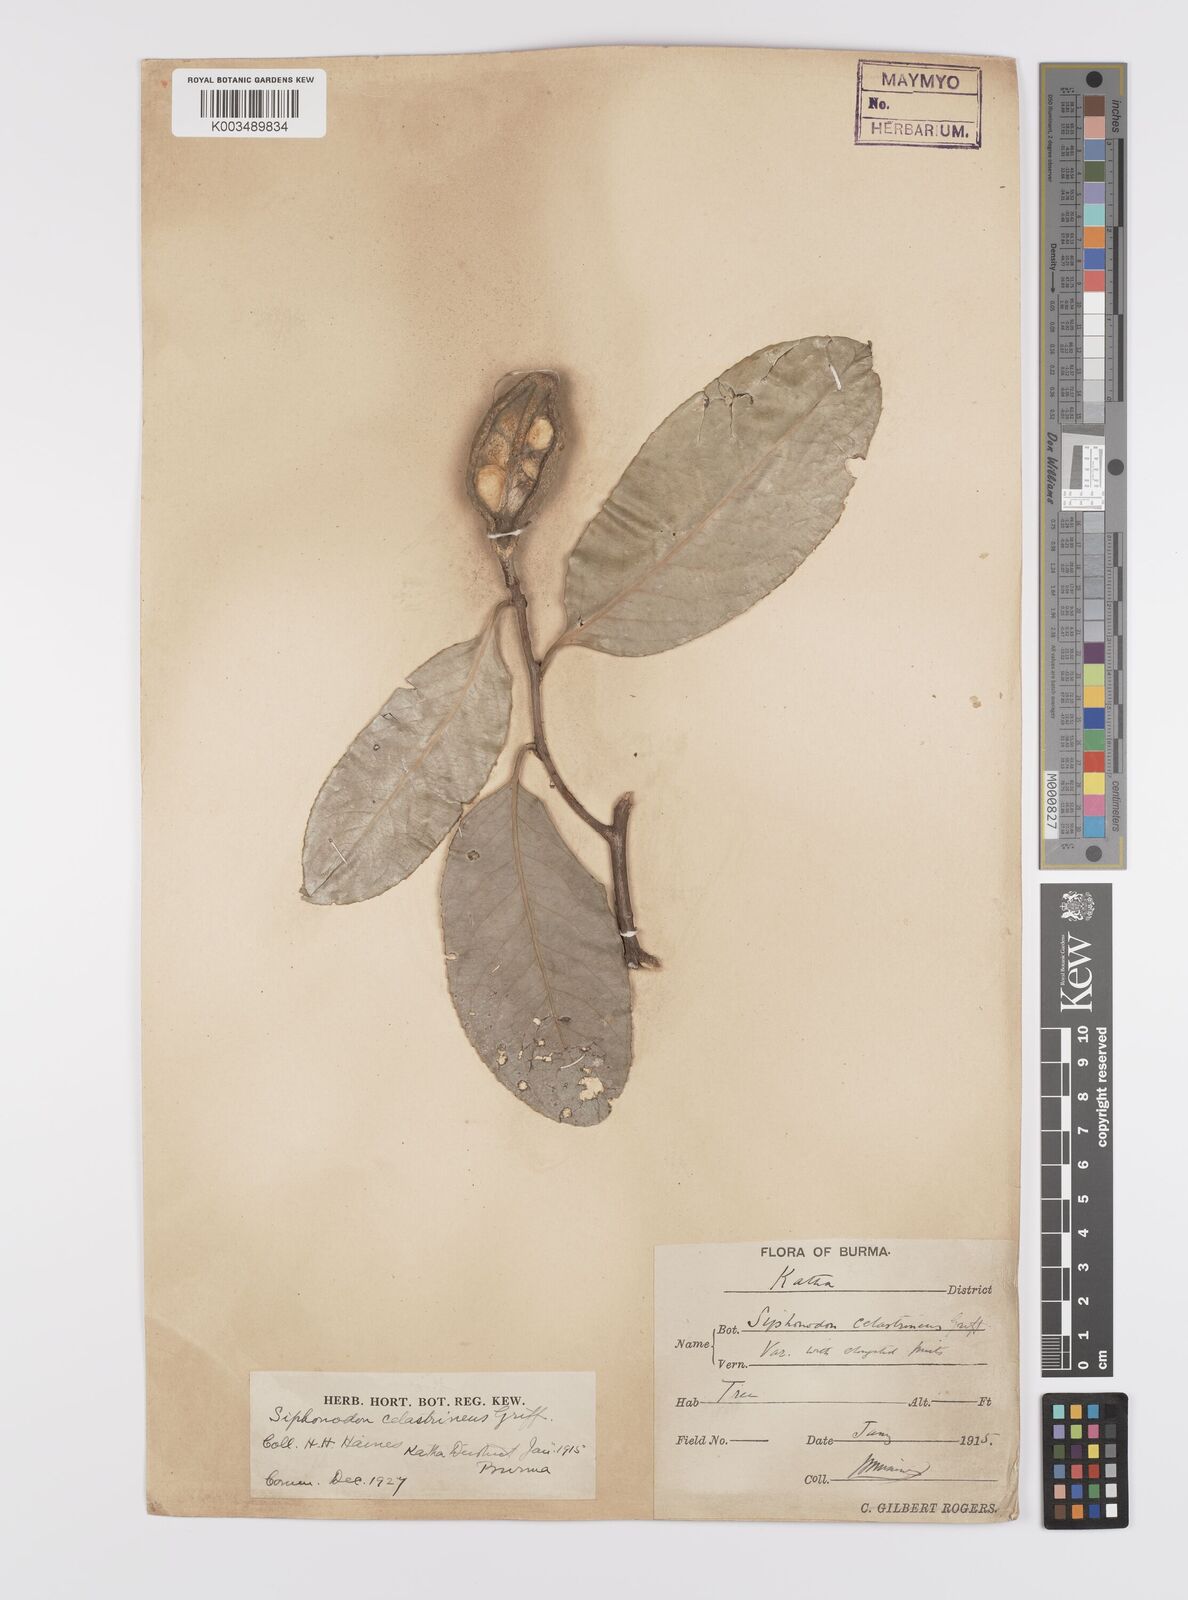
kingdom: Plantae
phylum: Tracheophyta
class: Magnoliopsida
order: Celastrales
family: Celastraceae
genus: Siphonodon
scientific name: Siphonodon celastrineus
